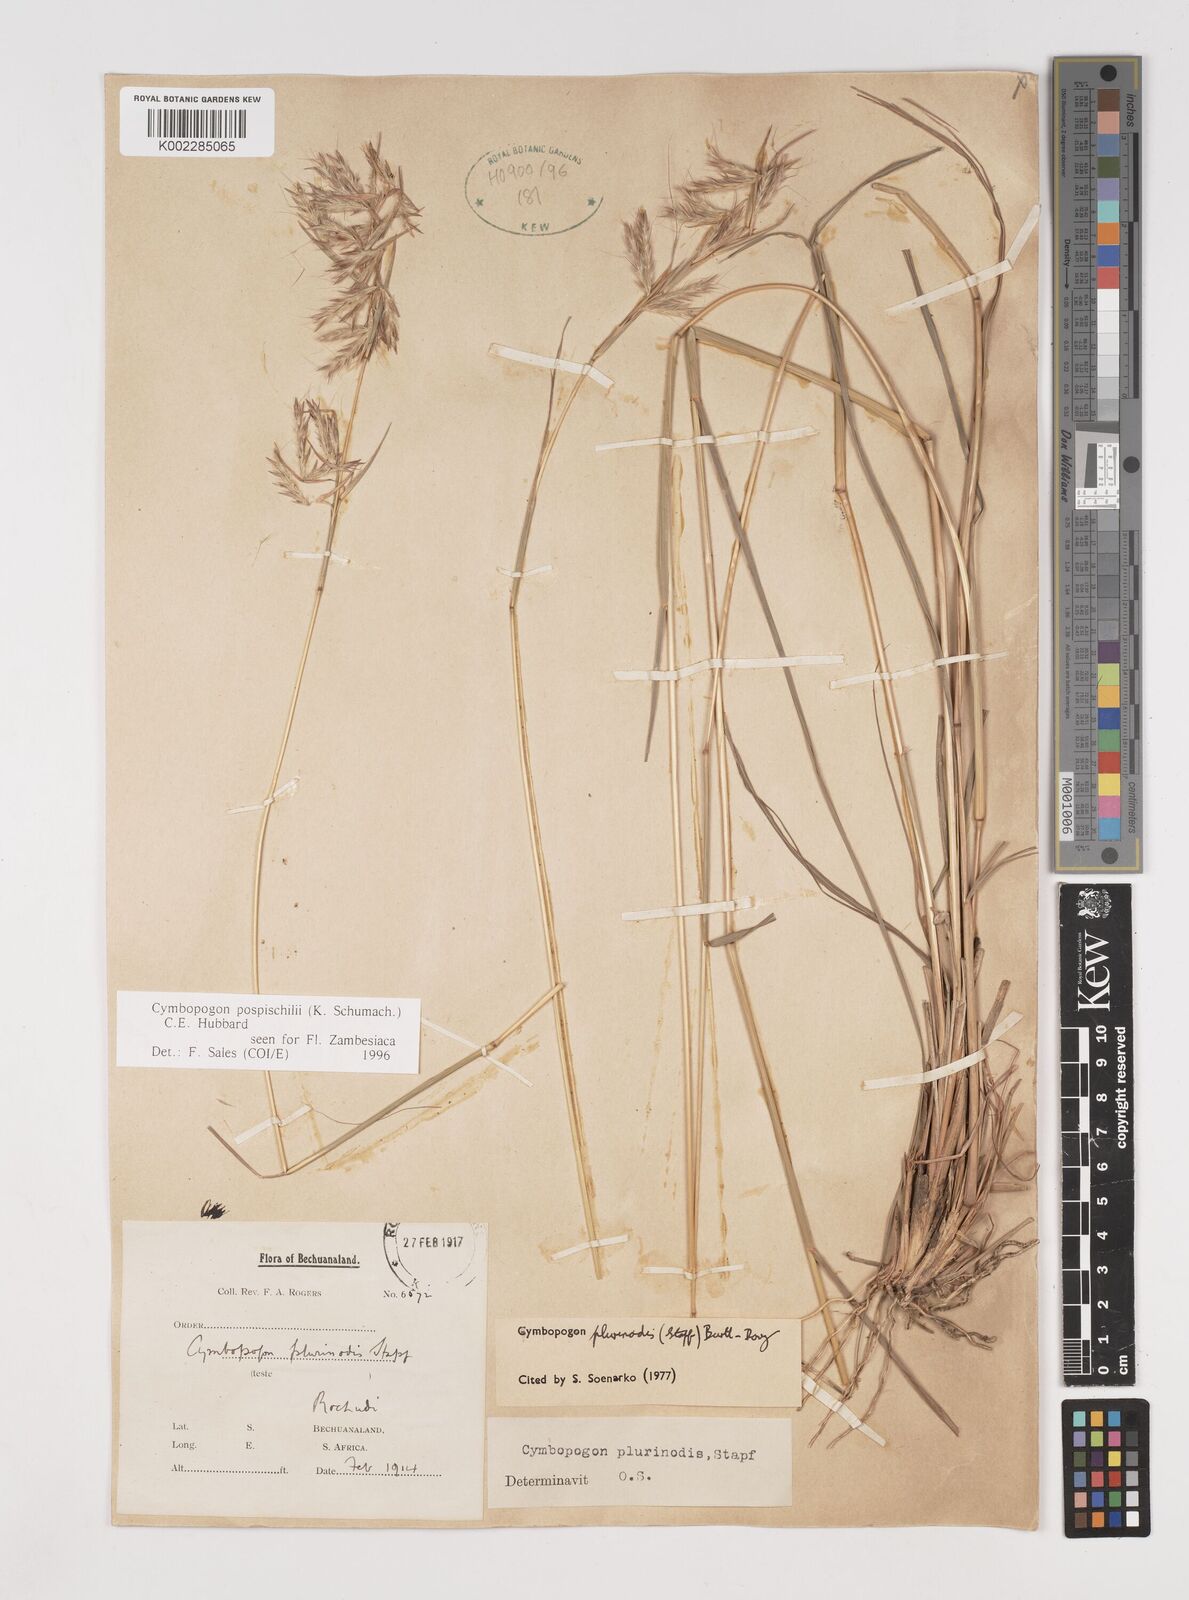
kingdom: Plantae
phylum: Tracheophyta
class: Liliopsida
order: Poales
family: Poaceae
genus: Cymbopogon
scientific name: Cymbopogon pospischilii
